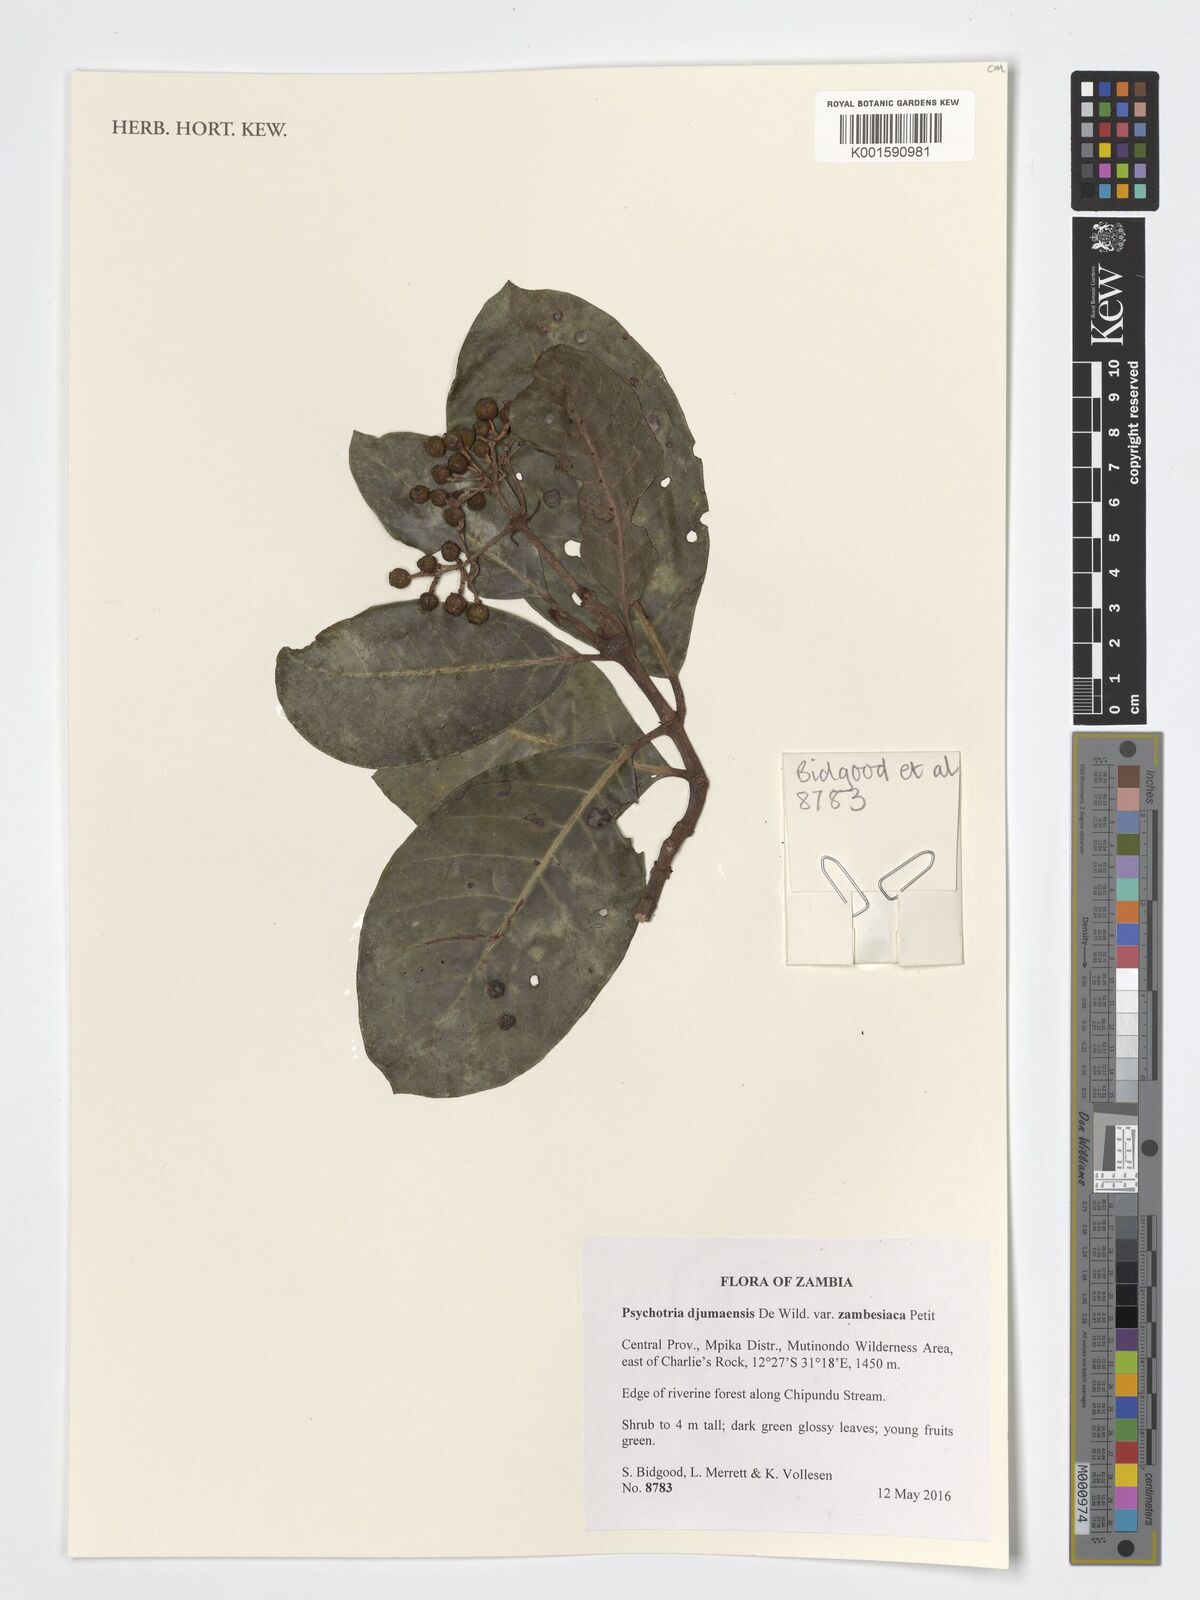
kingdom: Plantae
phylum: Tracheophyta
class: Magnoliopsida
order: Gentianales
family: Rubiaceae
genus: Psychotria
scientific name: Psychotria djumaensis
